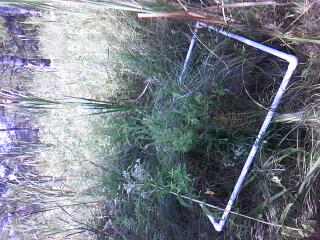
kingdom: Plantae
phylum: Tracheophyta
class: Magnoliopsida
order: Asterales
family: Asteraceae
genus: Symphyotrichum
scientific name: Symphyotrichum firmum
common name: Shining aster
